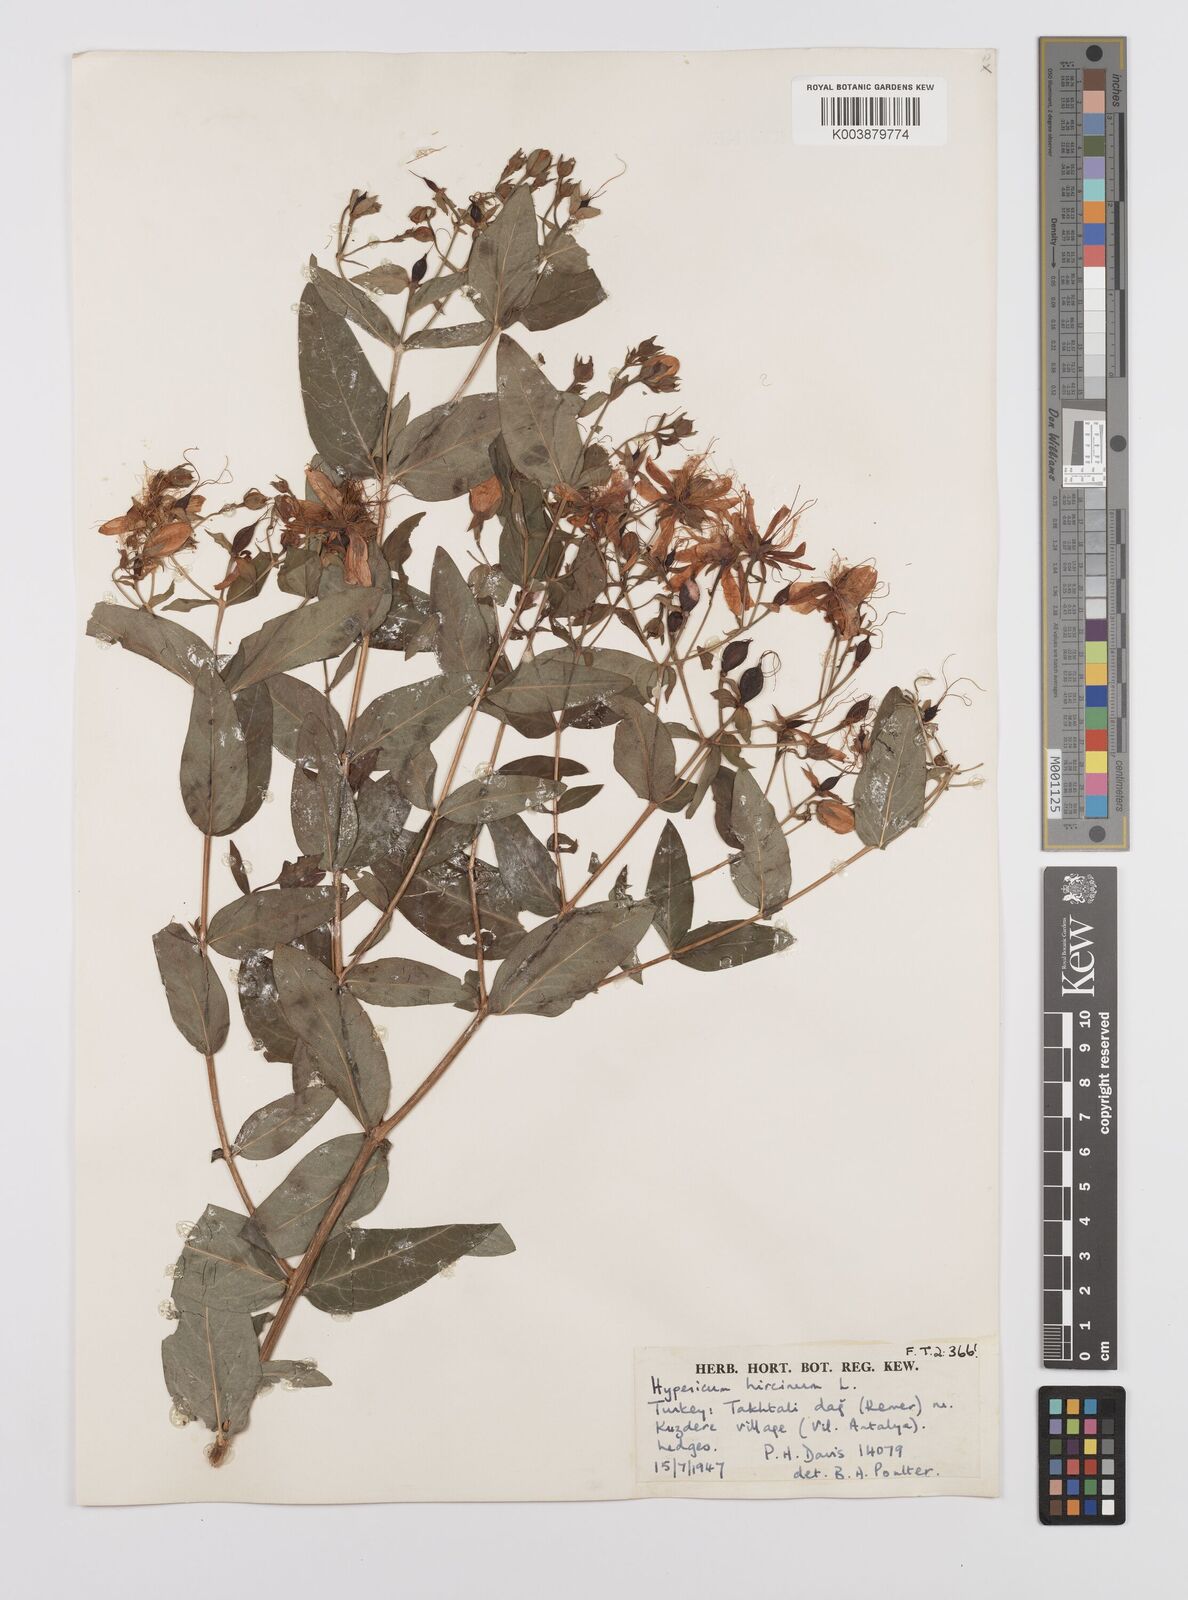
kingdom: Plantae
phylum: Tracheophyta
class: Magnoliopsida
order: Malpighiales
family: Hypericaceae
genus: Hypericum
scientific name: Hypericum hircinum
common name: Stinking tutsan
